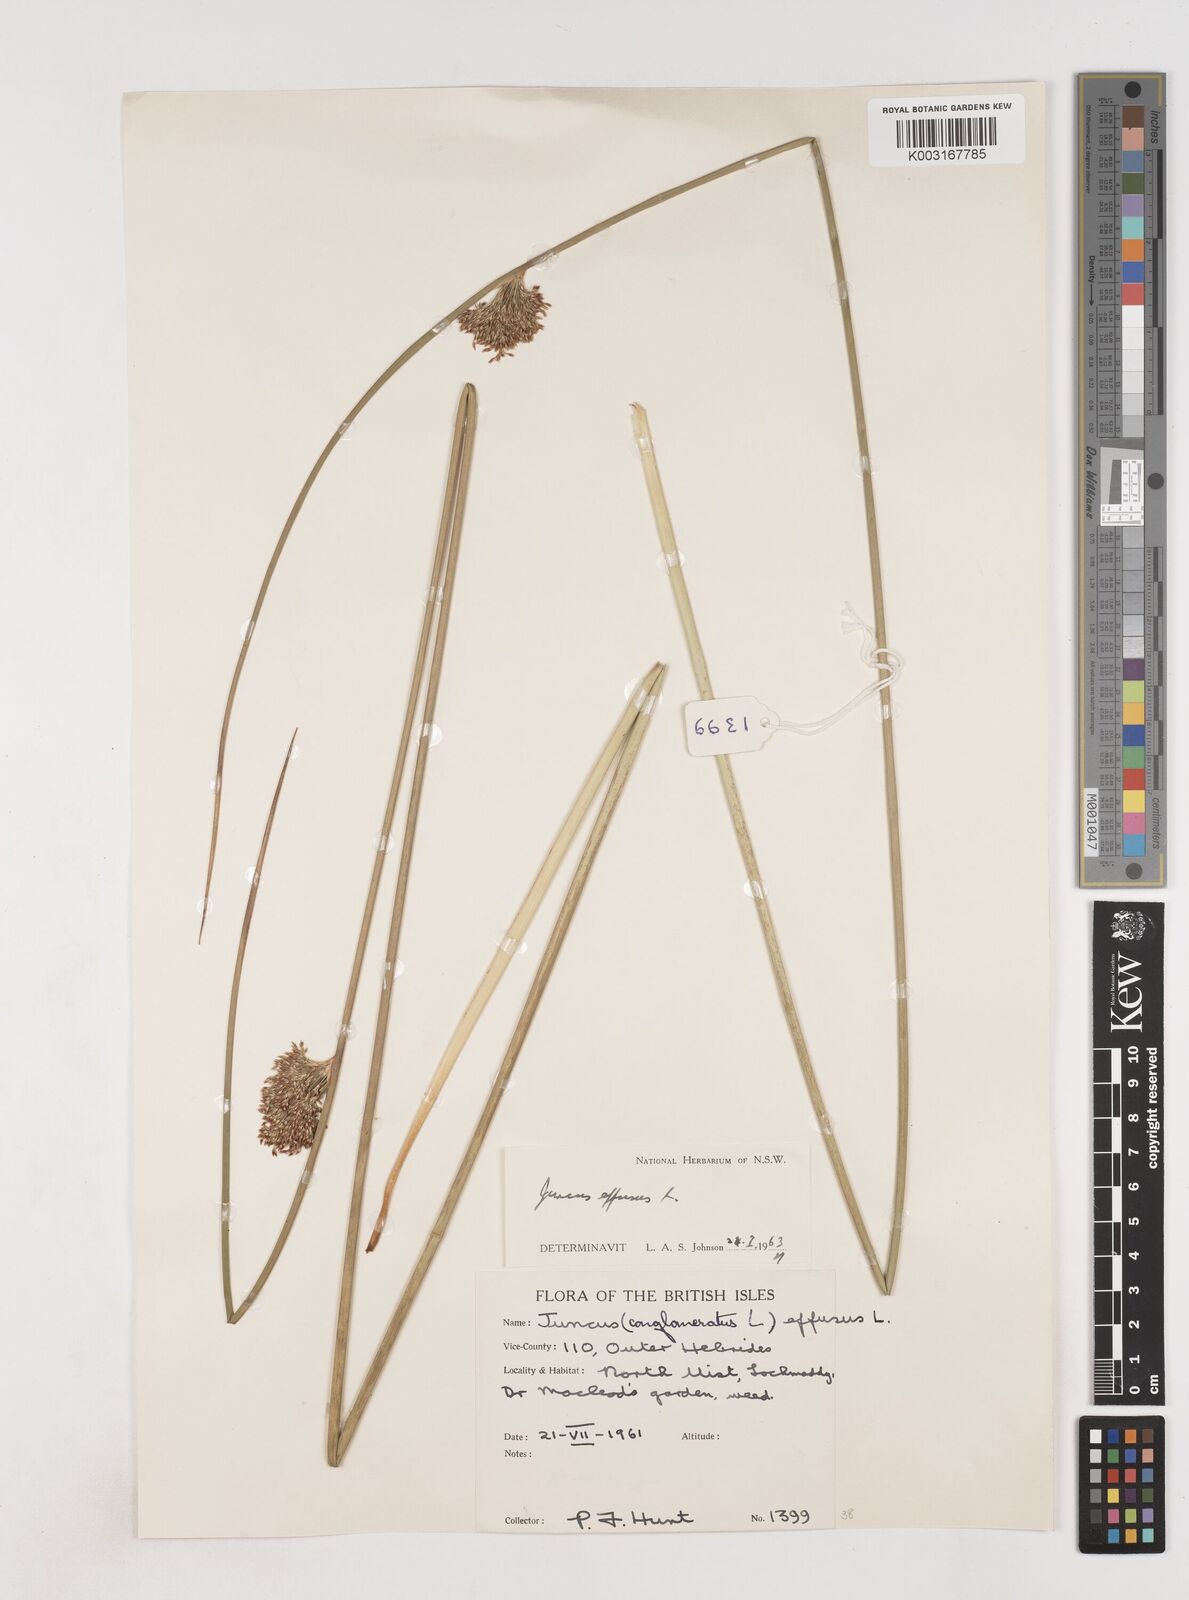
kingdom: Plantae
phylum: Tracheophyta
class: Liliopsida
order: Poales
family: Juncaceae
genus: Juncus
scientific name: Juncus effusus
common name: Soft rush
